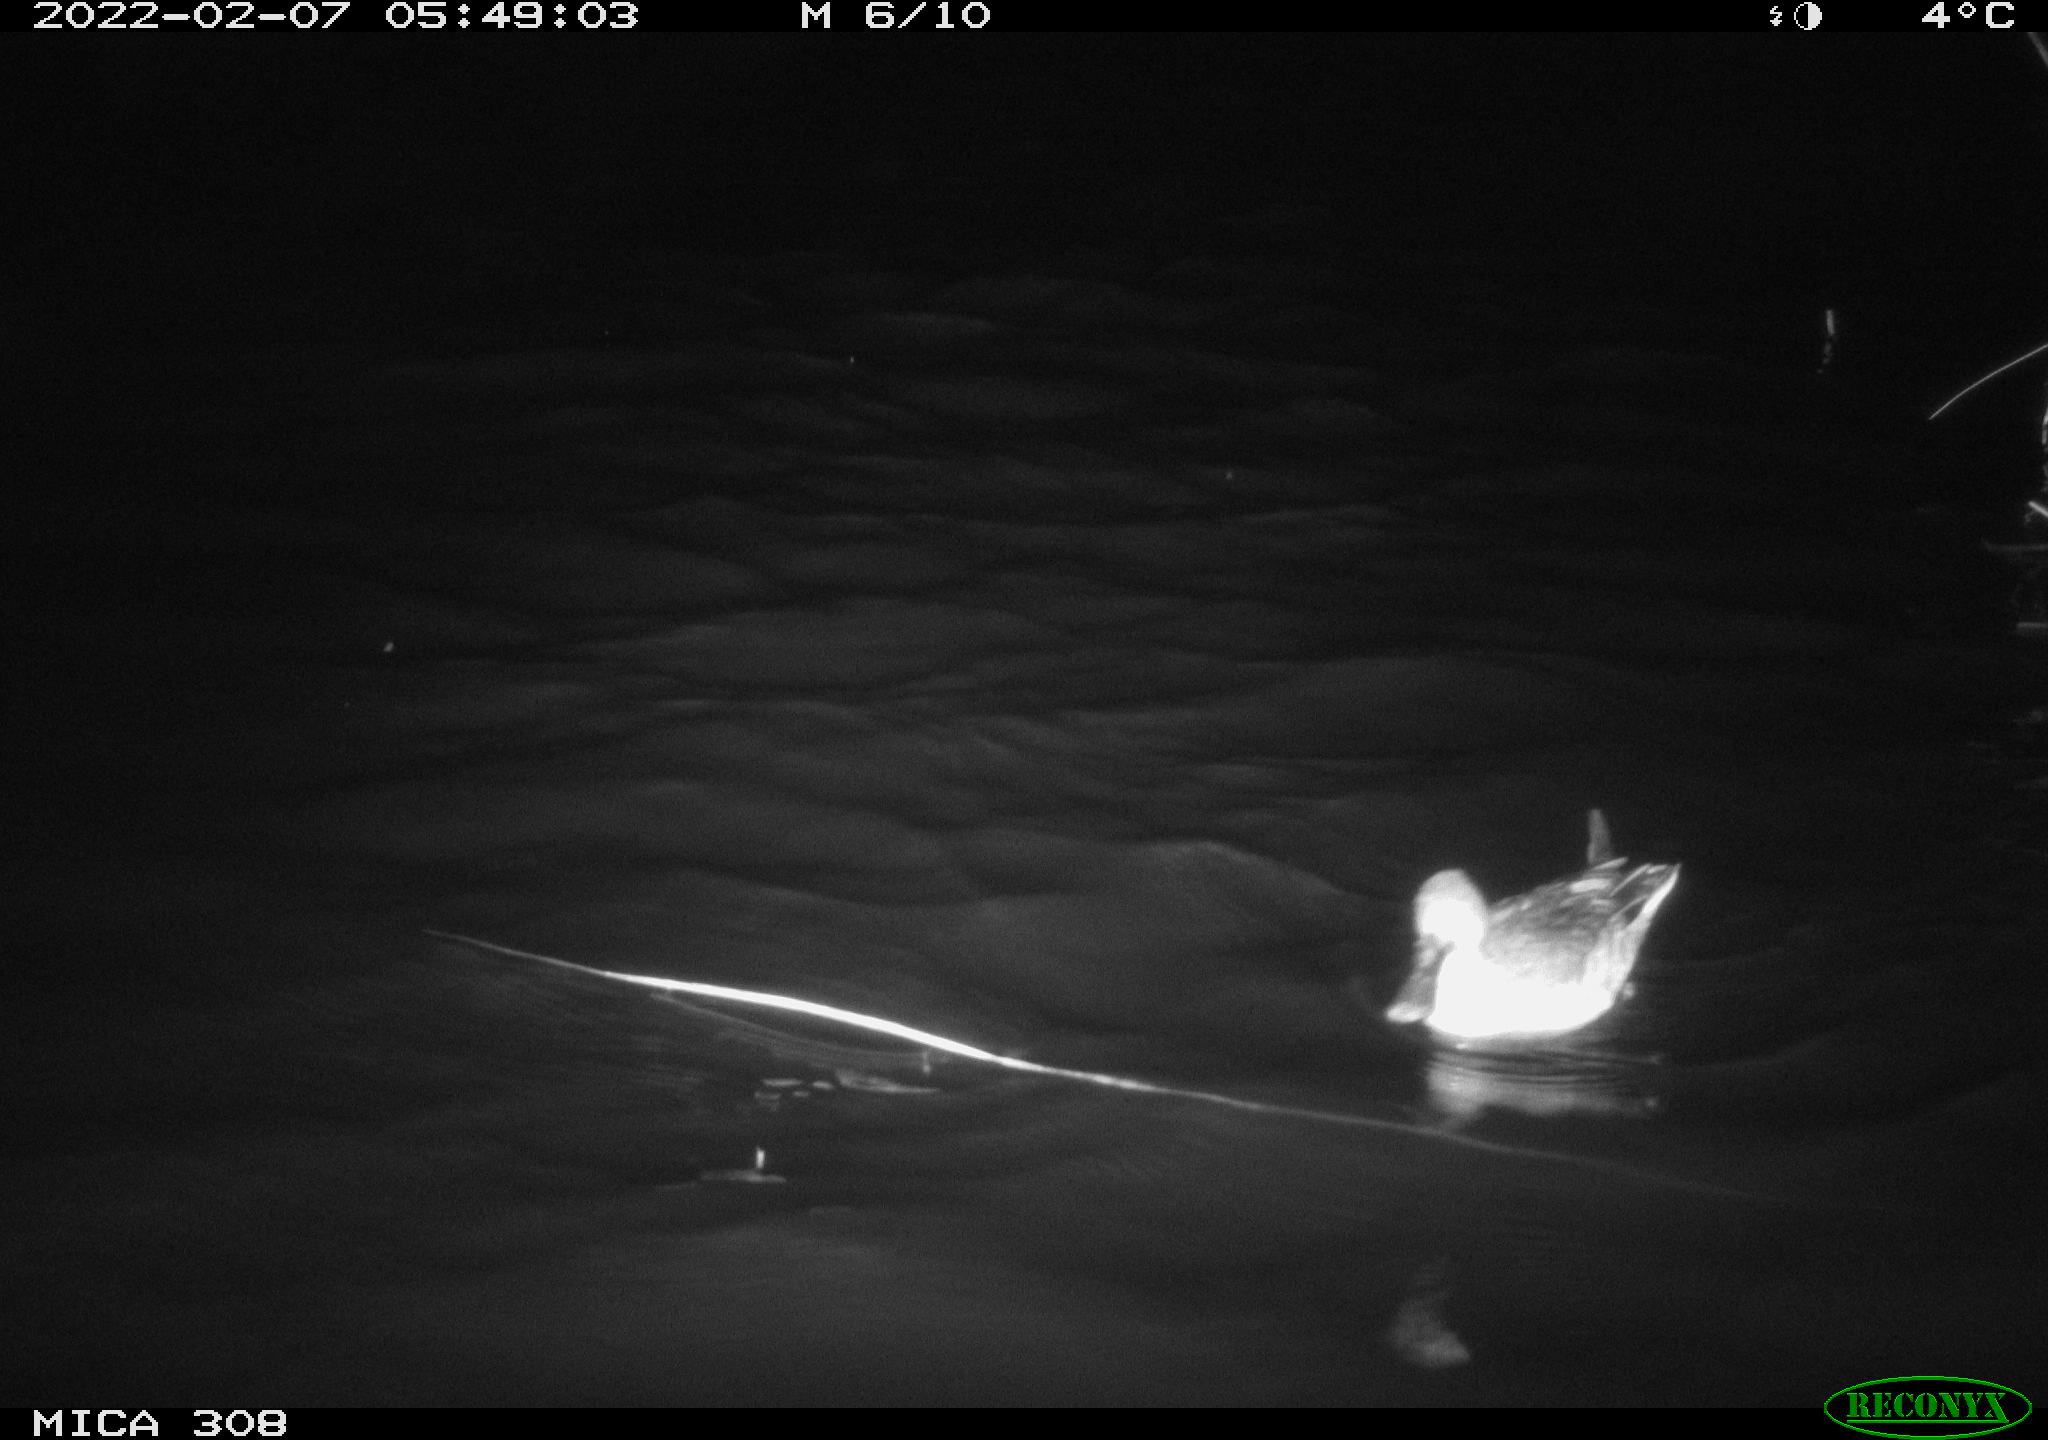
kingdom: Animalia
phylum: Chordata
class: Aves
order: Anseriformes
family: Anatidae
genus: Spatula
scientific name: Spatula clypeata
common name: Northern shoveler
